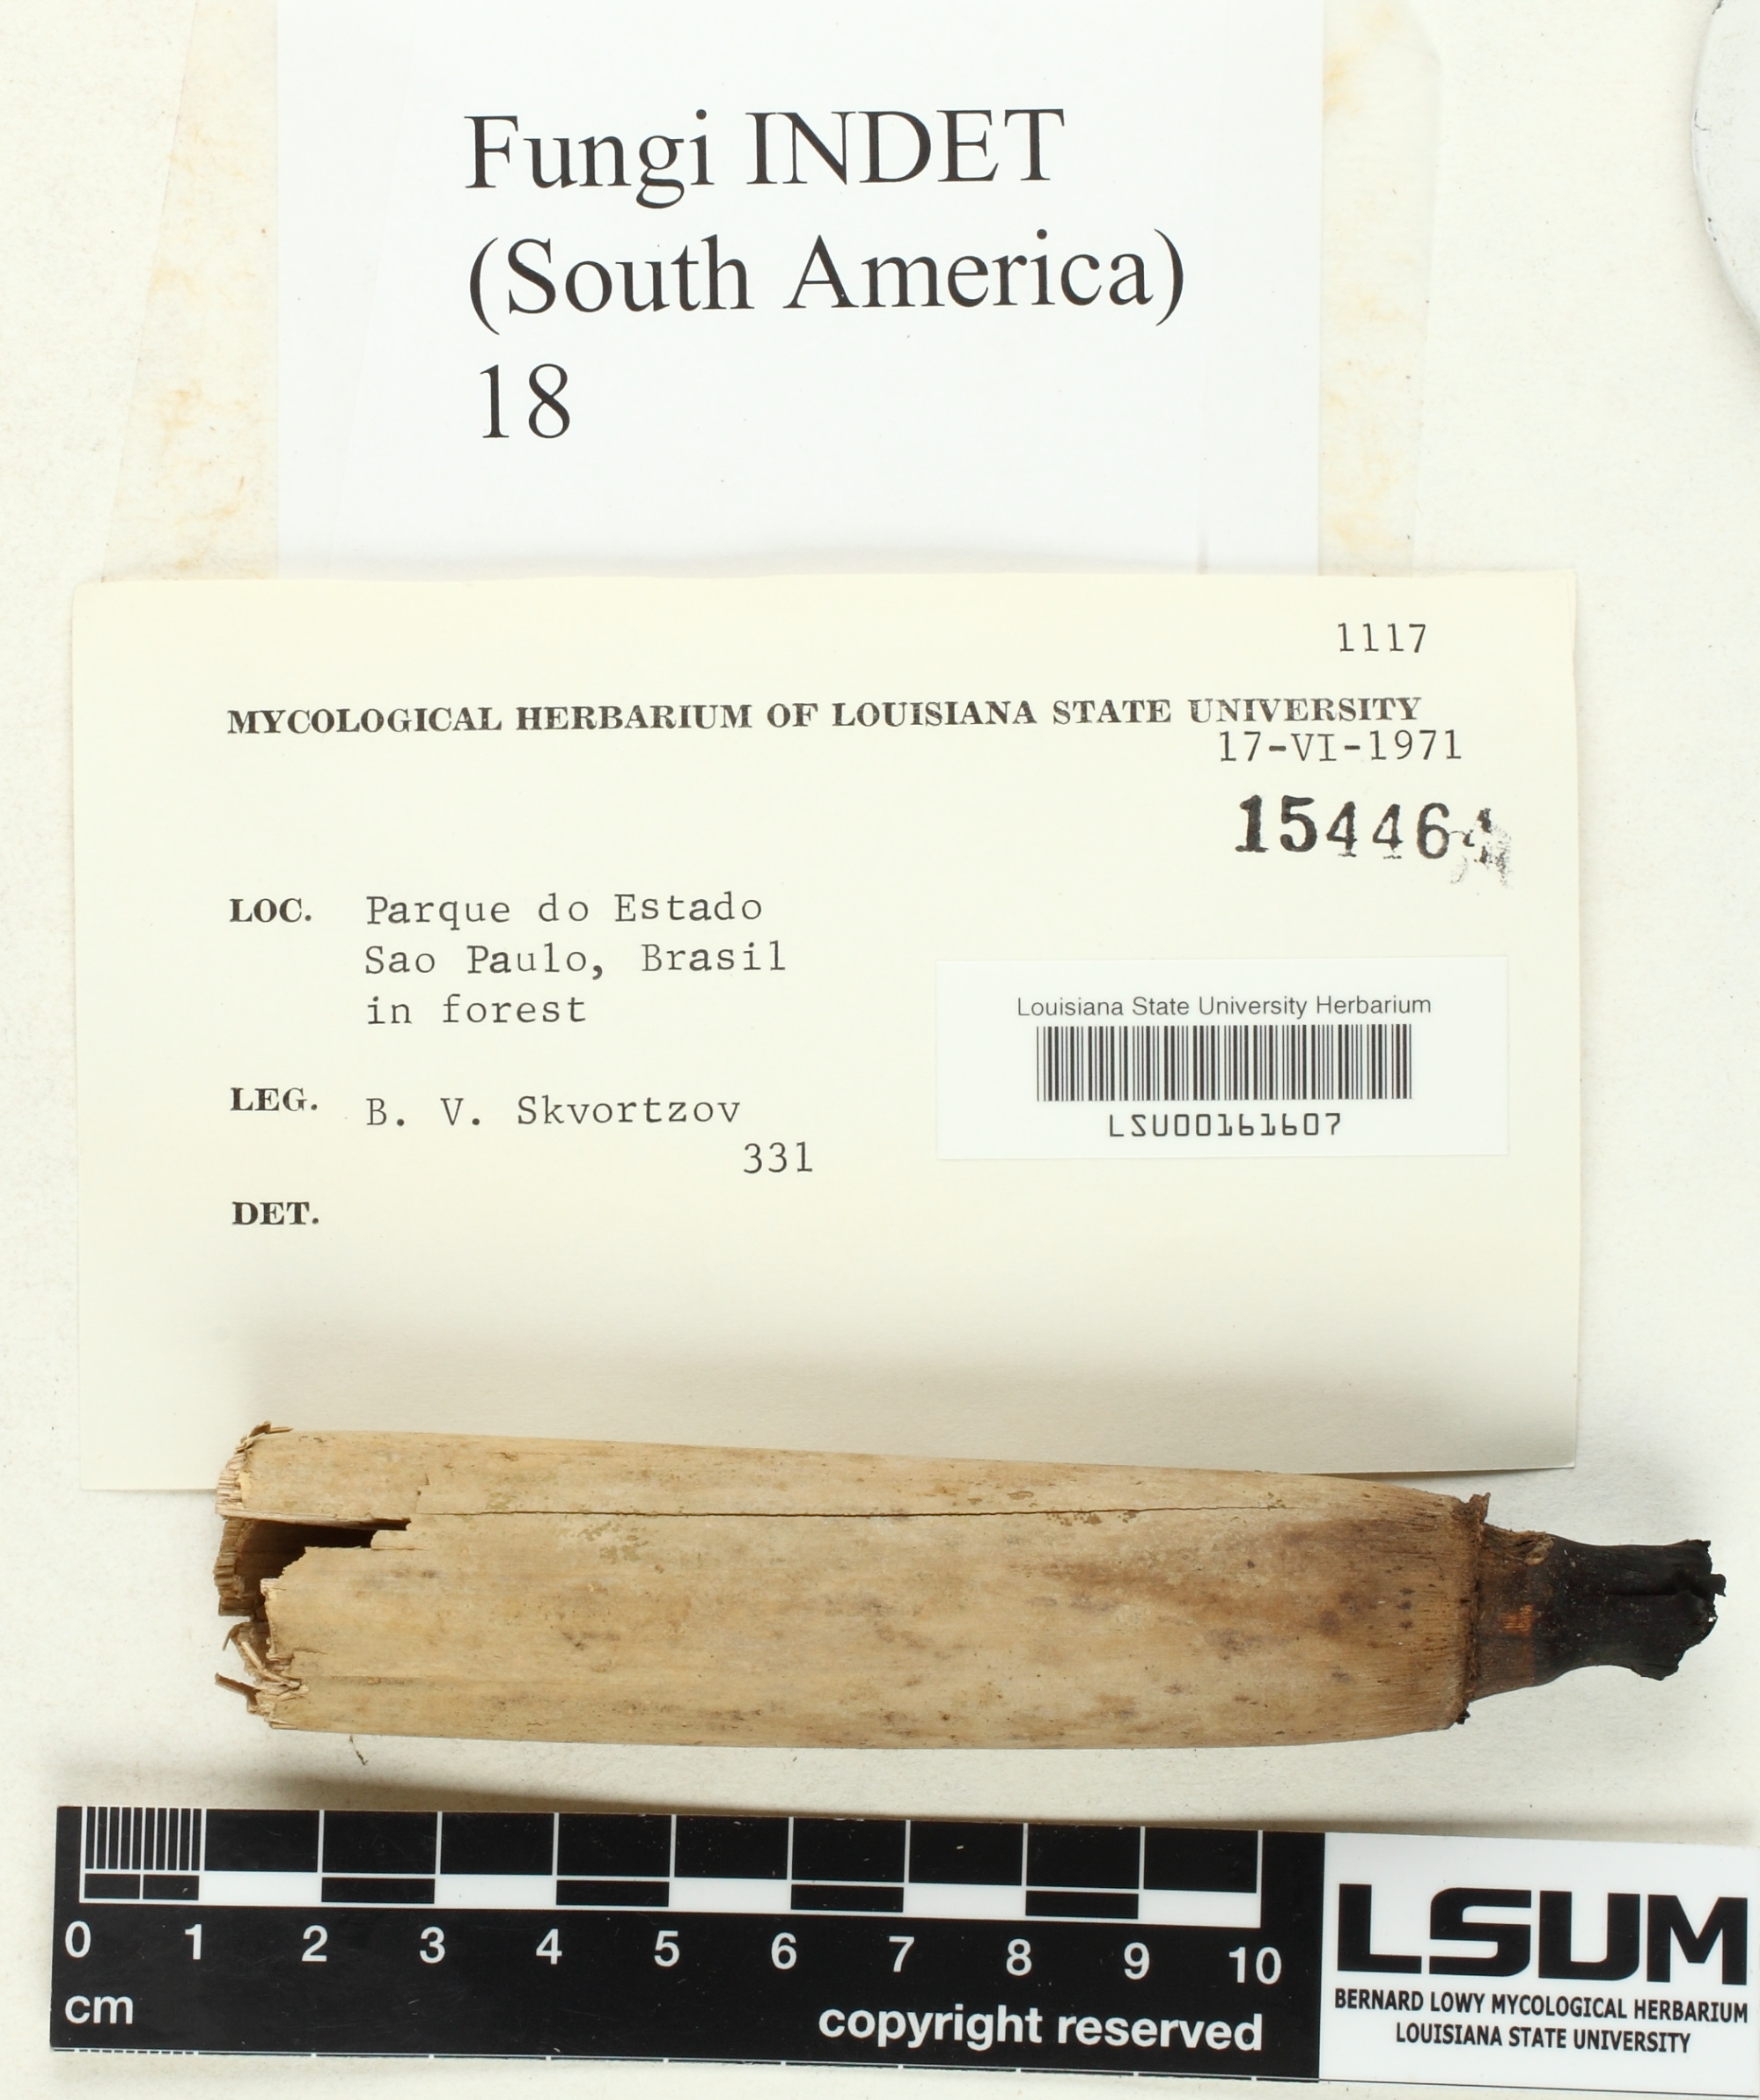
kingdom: Fungi
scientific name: Fungi
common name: Fungi
